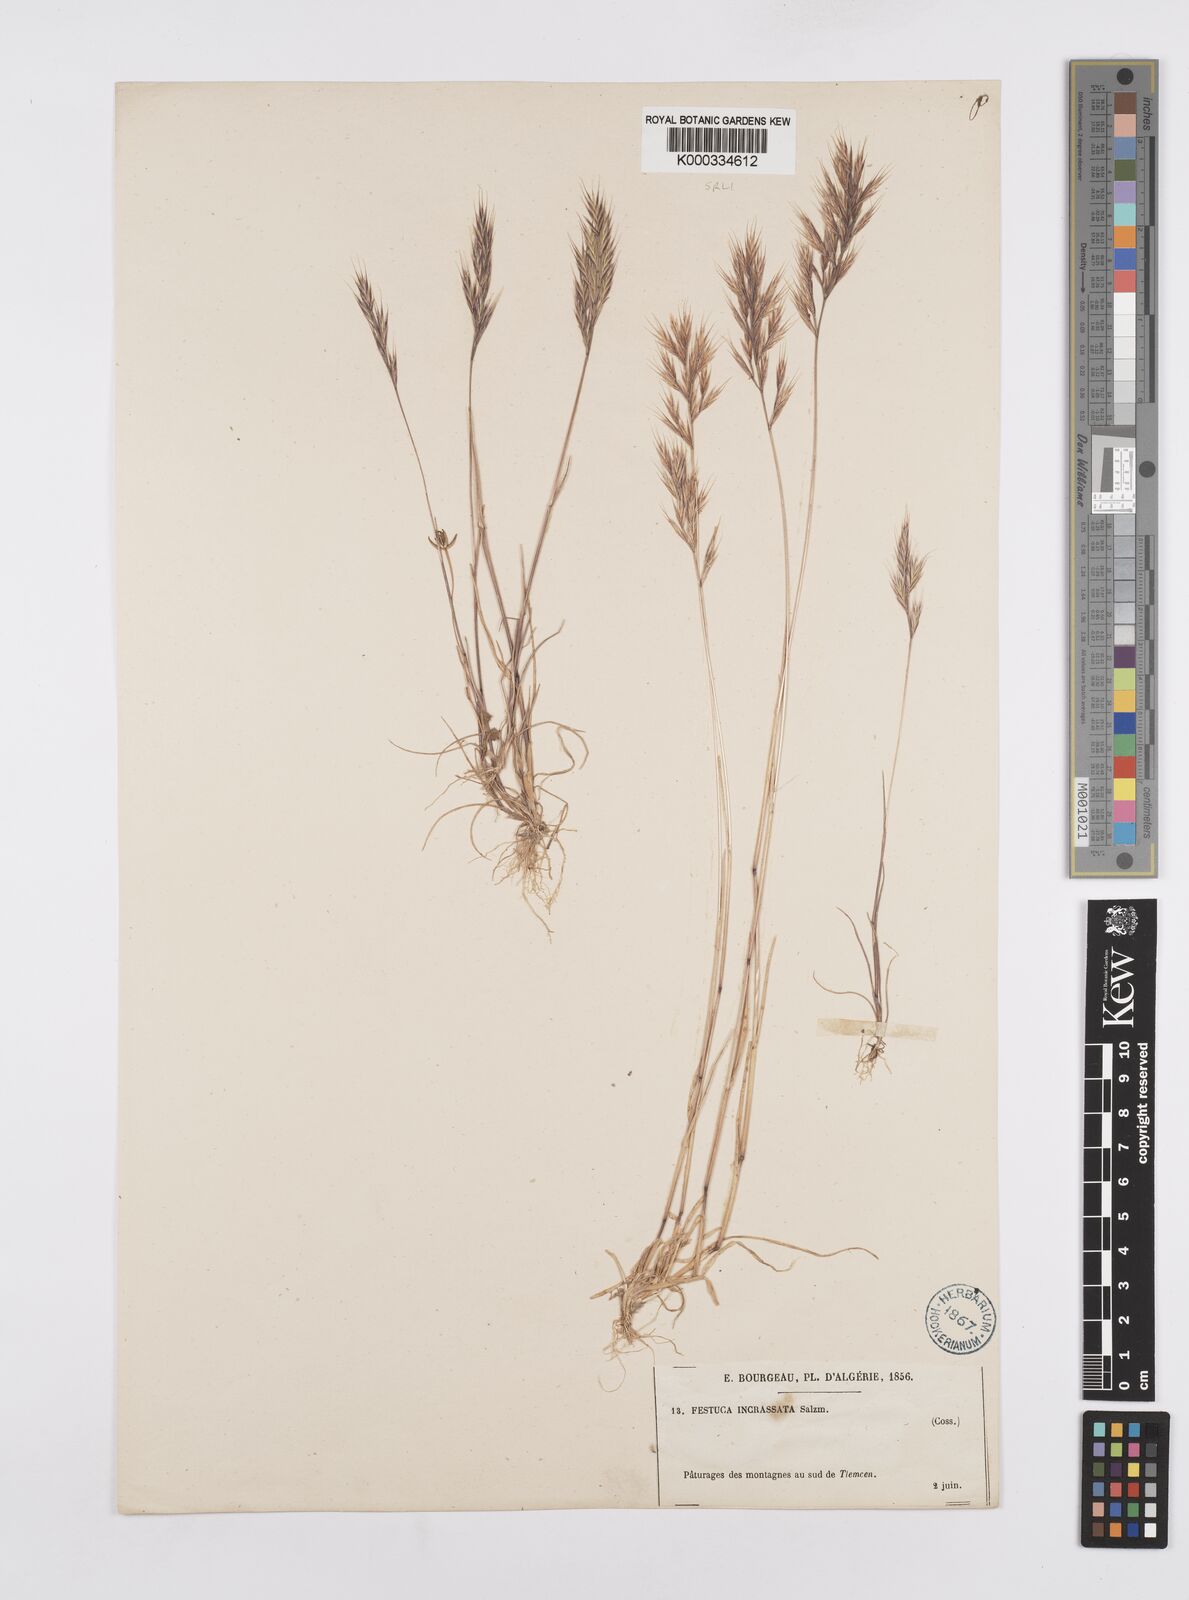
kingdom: Plantae
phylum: Tracheophyta
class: Liliopsida
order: Poales
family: Poaceae
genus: Vulpiella
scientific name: Vulpiella stipoides
